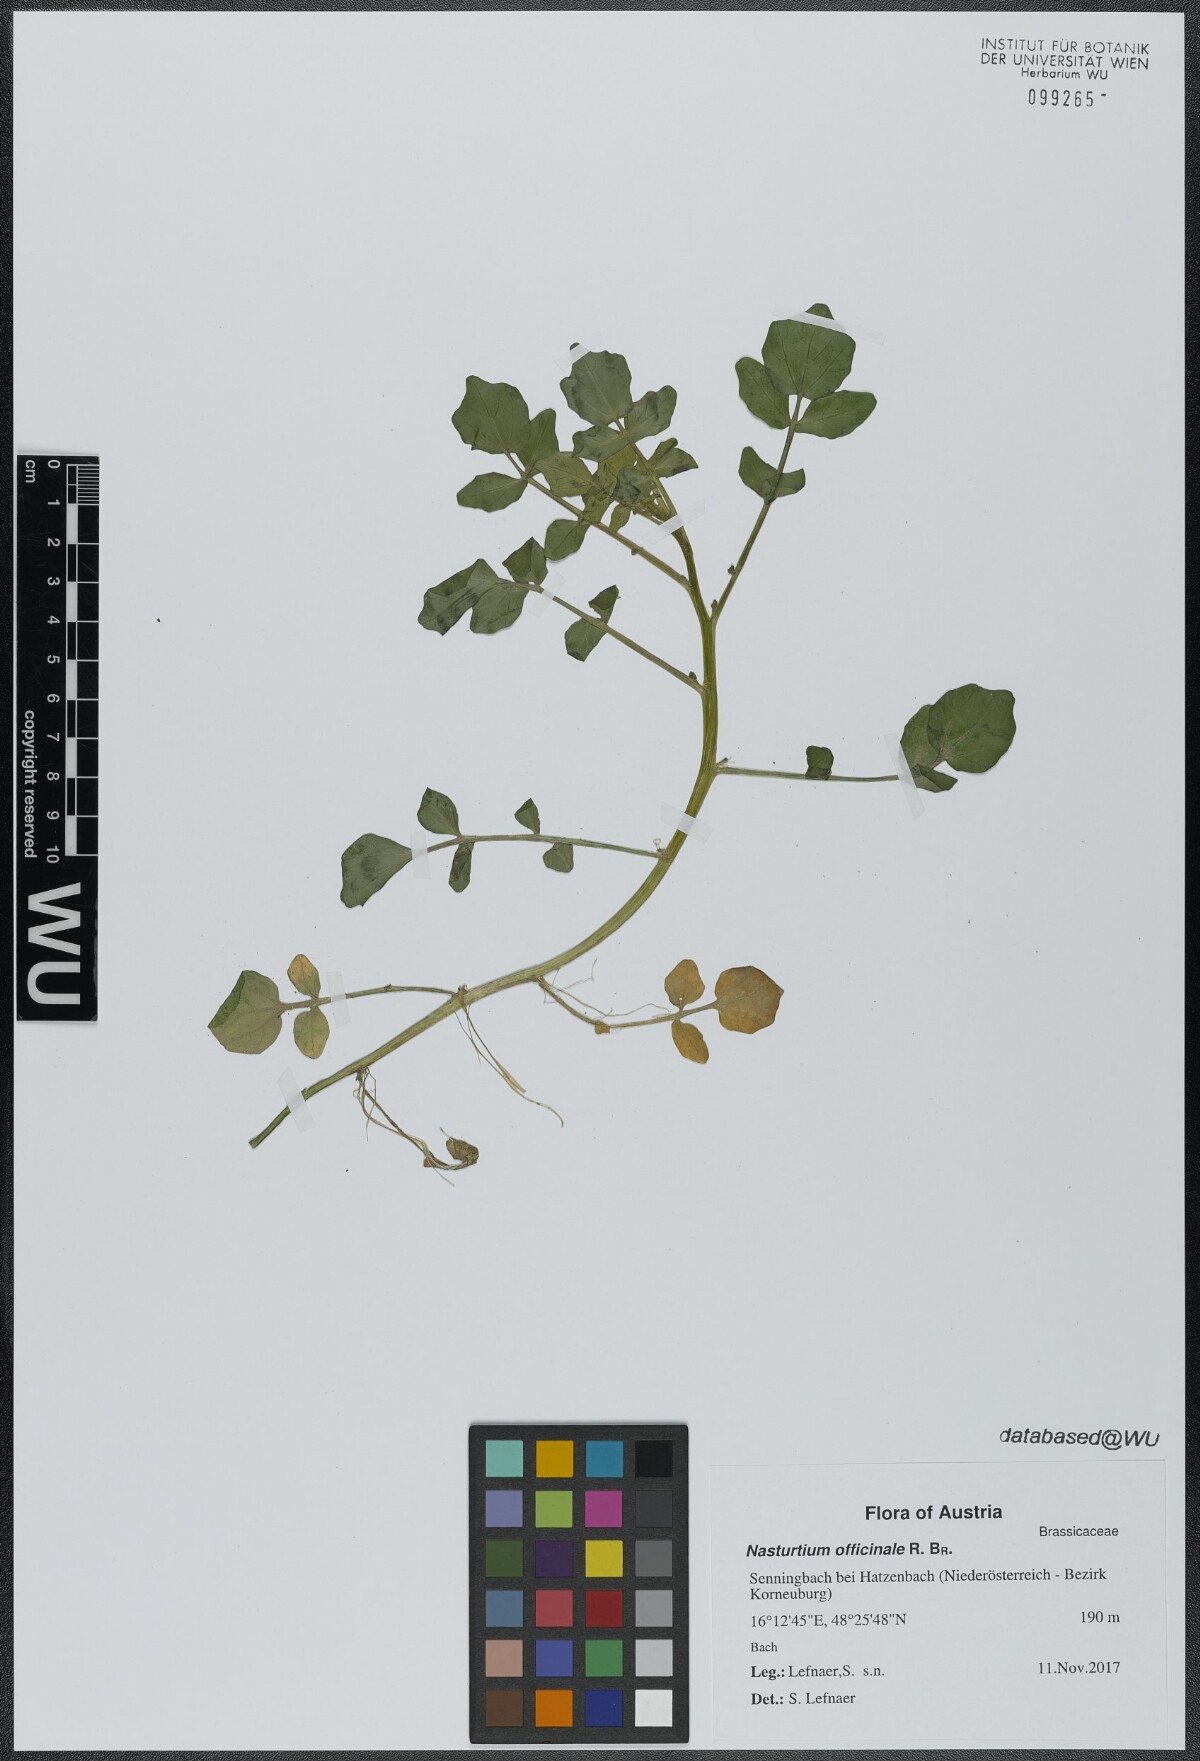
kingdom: Plantae
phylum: Tracheophyta
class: Magnoliopsida
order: Brassicales
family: Brassicaceae
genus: Nasturtium
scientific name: Nasturtium officinale
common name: Watercress
